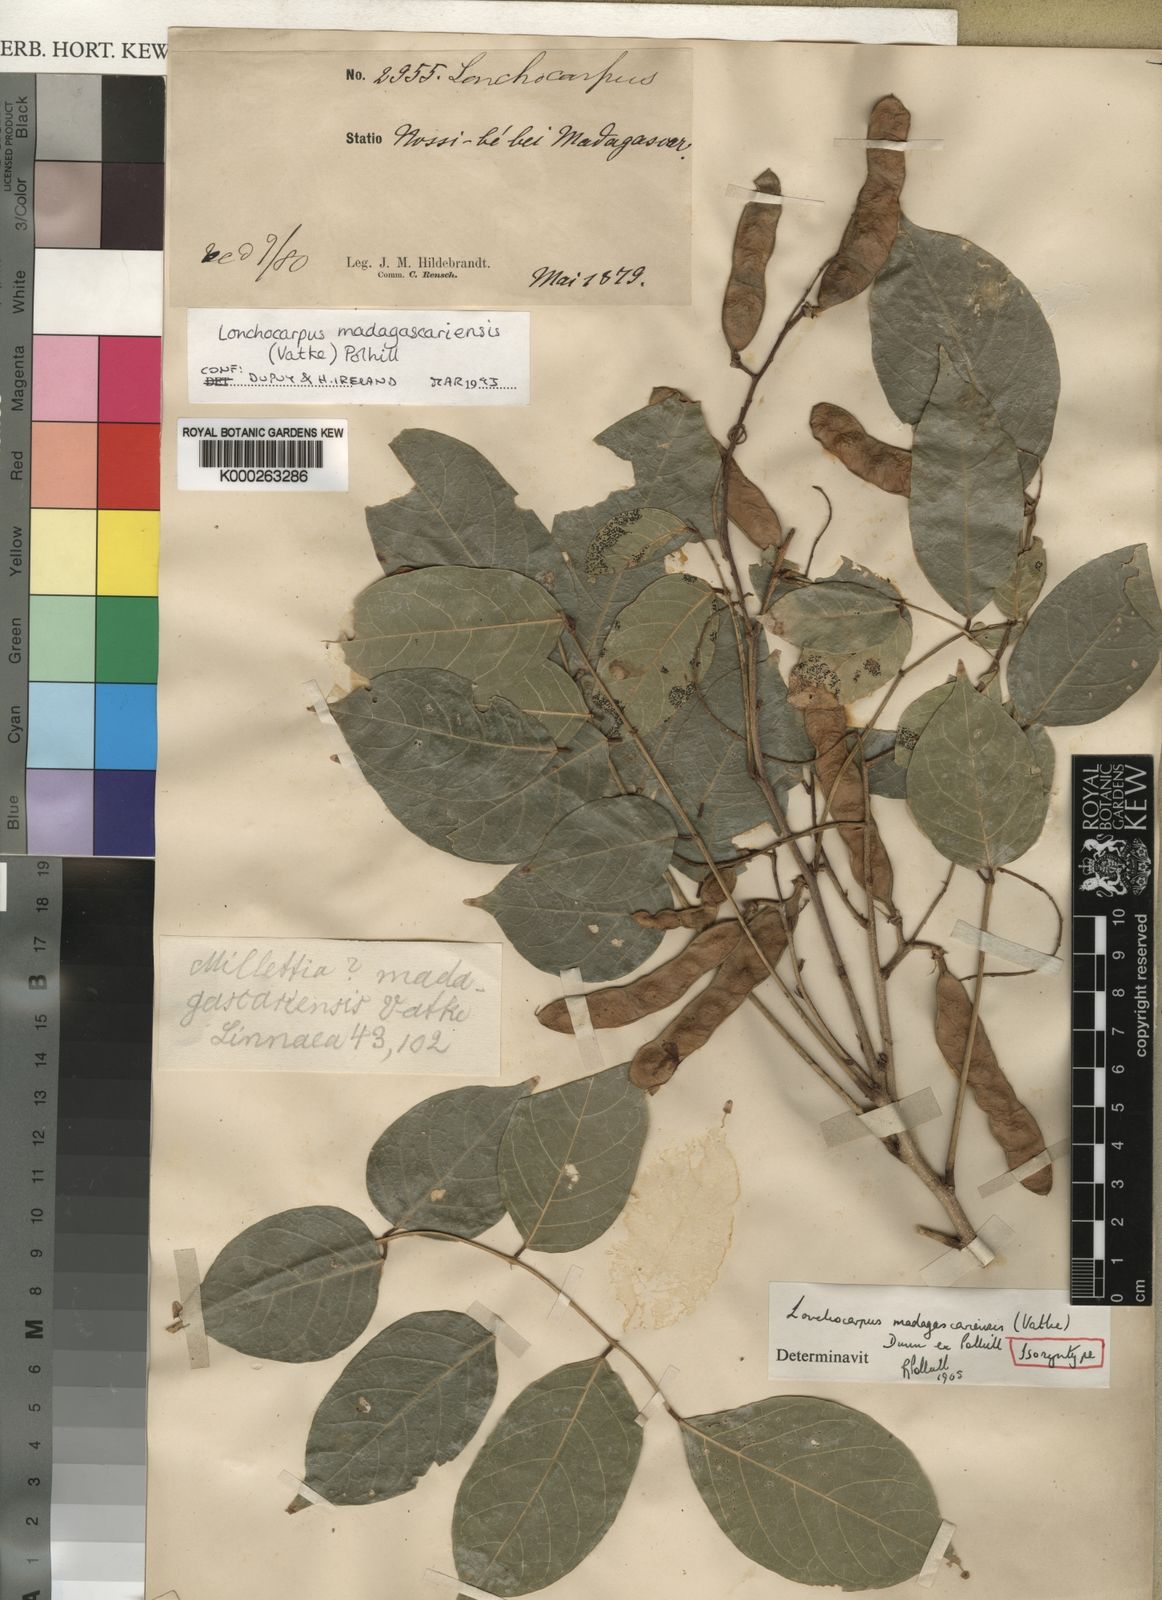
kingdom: Plantae
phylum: Tracheophyta
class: Magnoliopsida
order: Fabales
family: Fabaceae
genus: Lonchocarpus
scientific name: Lonchocarpus madagascariensis
